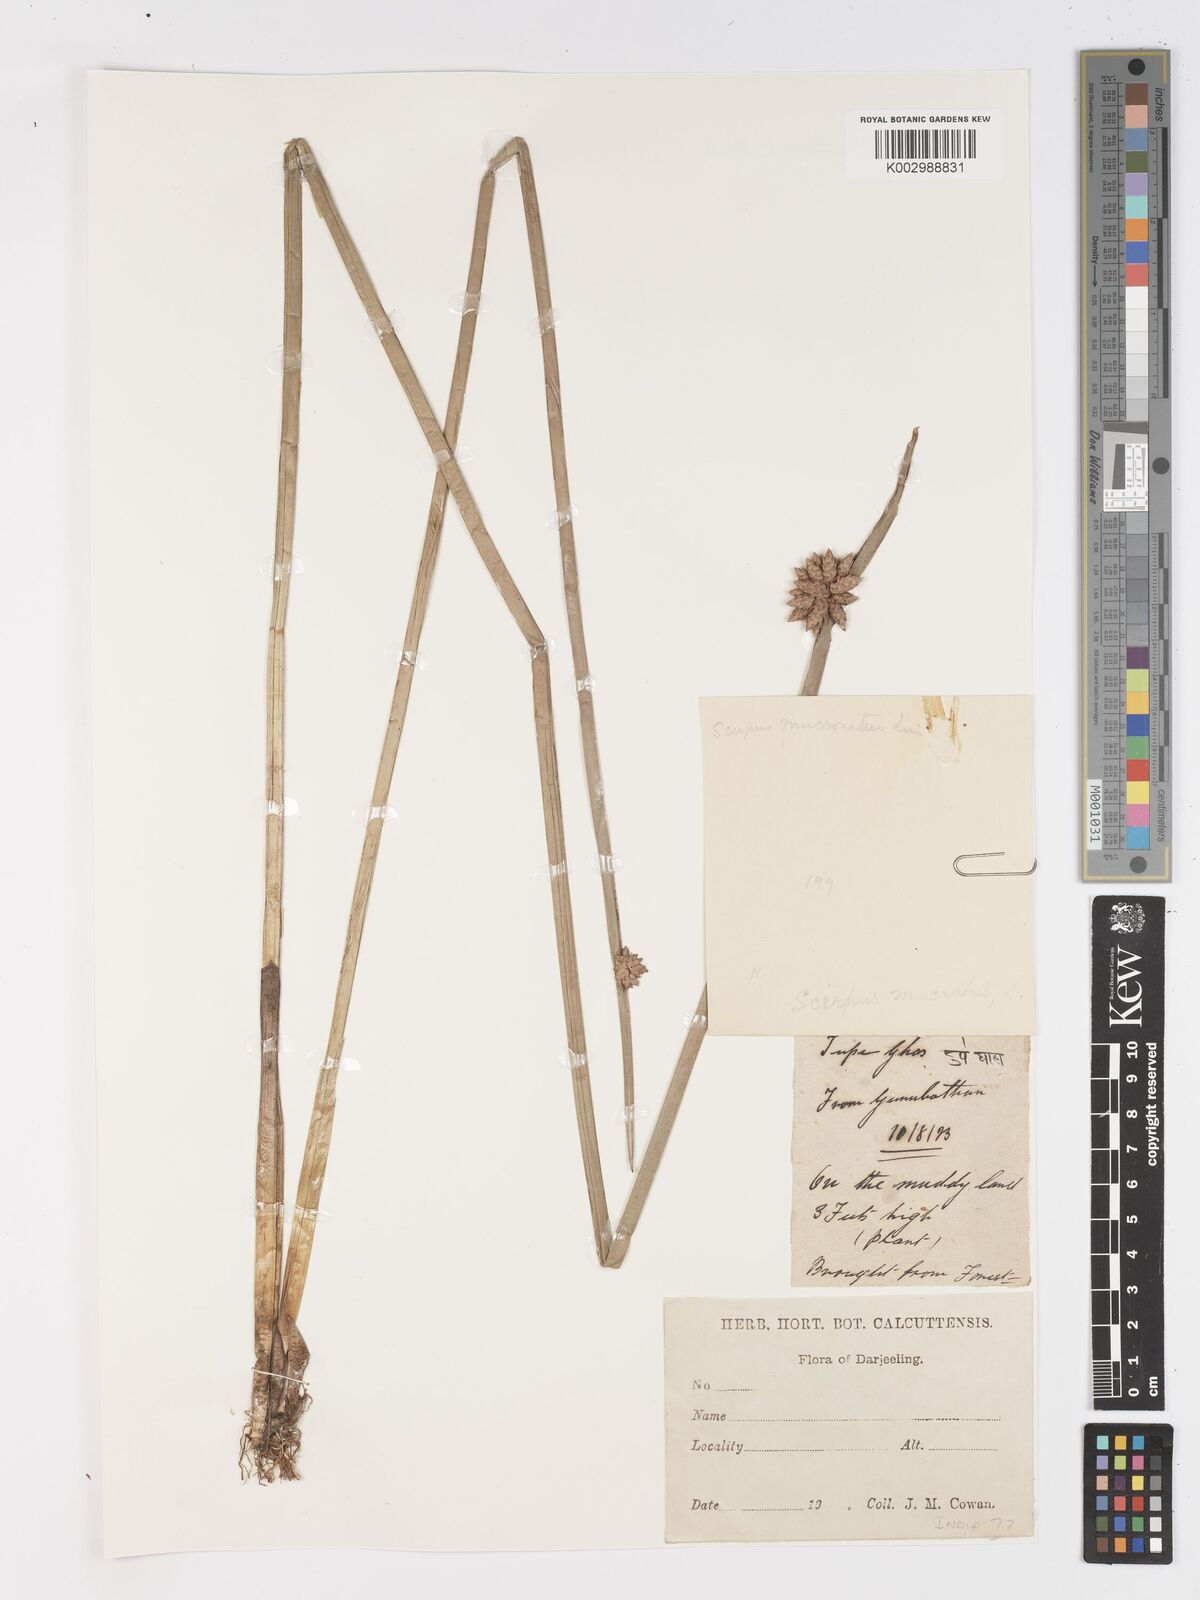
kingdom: Plantae
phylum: Tracheophyta
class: Liliopsida
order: Poales
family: Cyperaceae
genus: Schoenoplectiella
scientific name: Schoenoplectiella mucronata
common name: Bog bulrush
